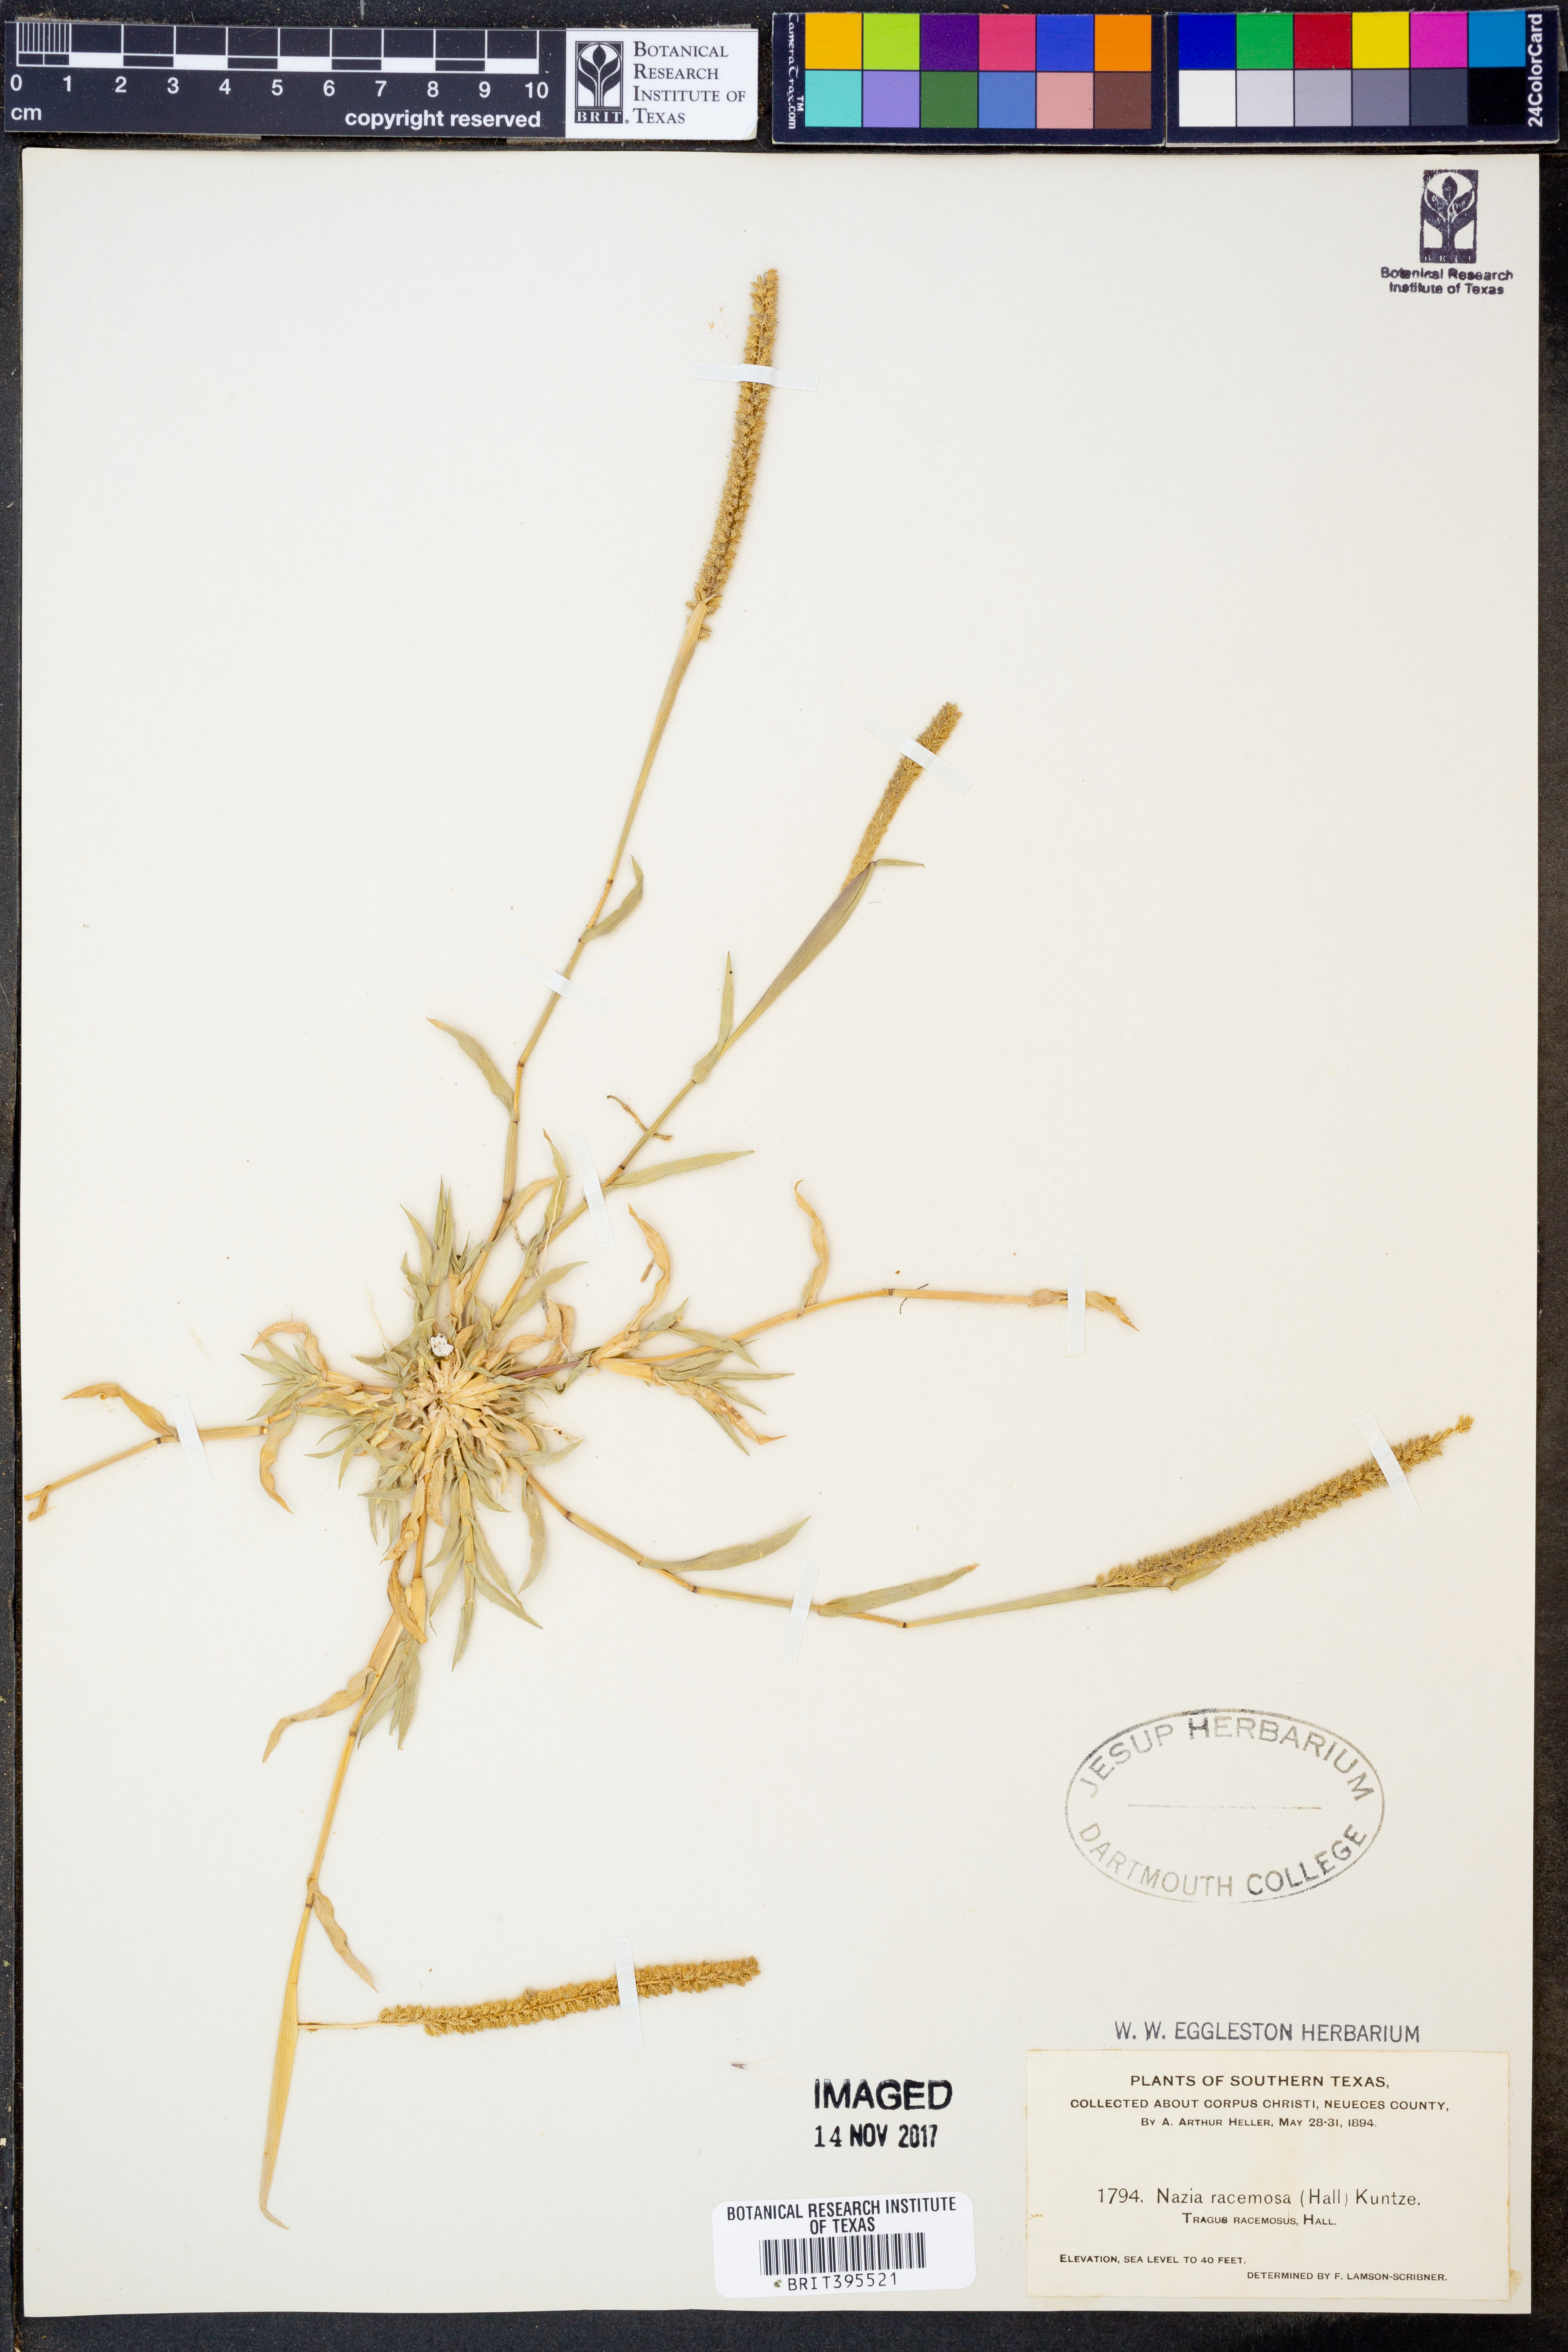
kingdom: Plantae
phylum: Tracheophyta
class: Liliopsida
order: Poales
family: Poaceae
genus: Tragus
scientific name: Tragus racemosus
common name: European bur-grass
